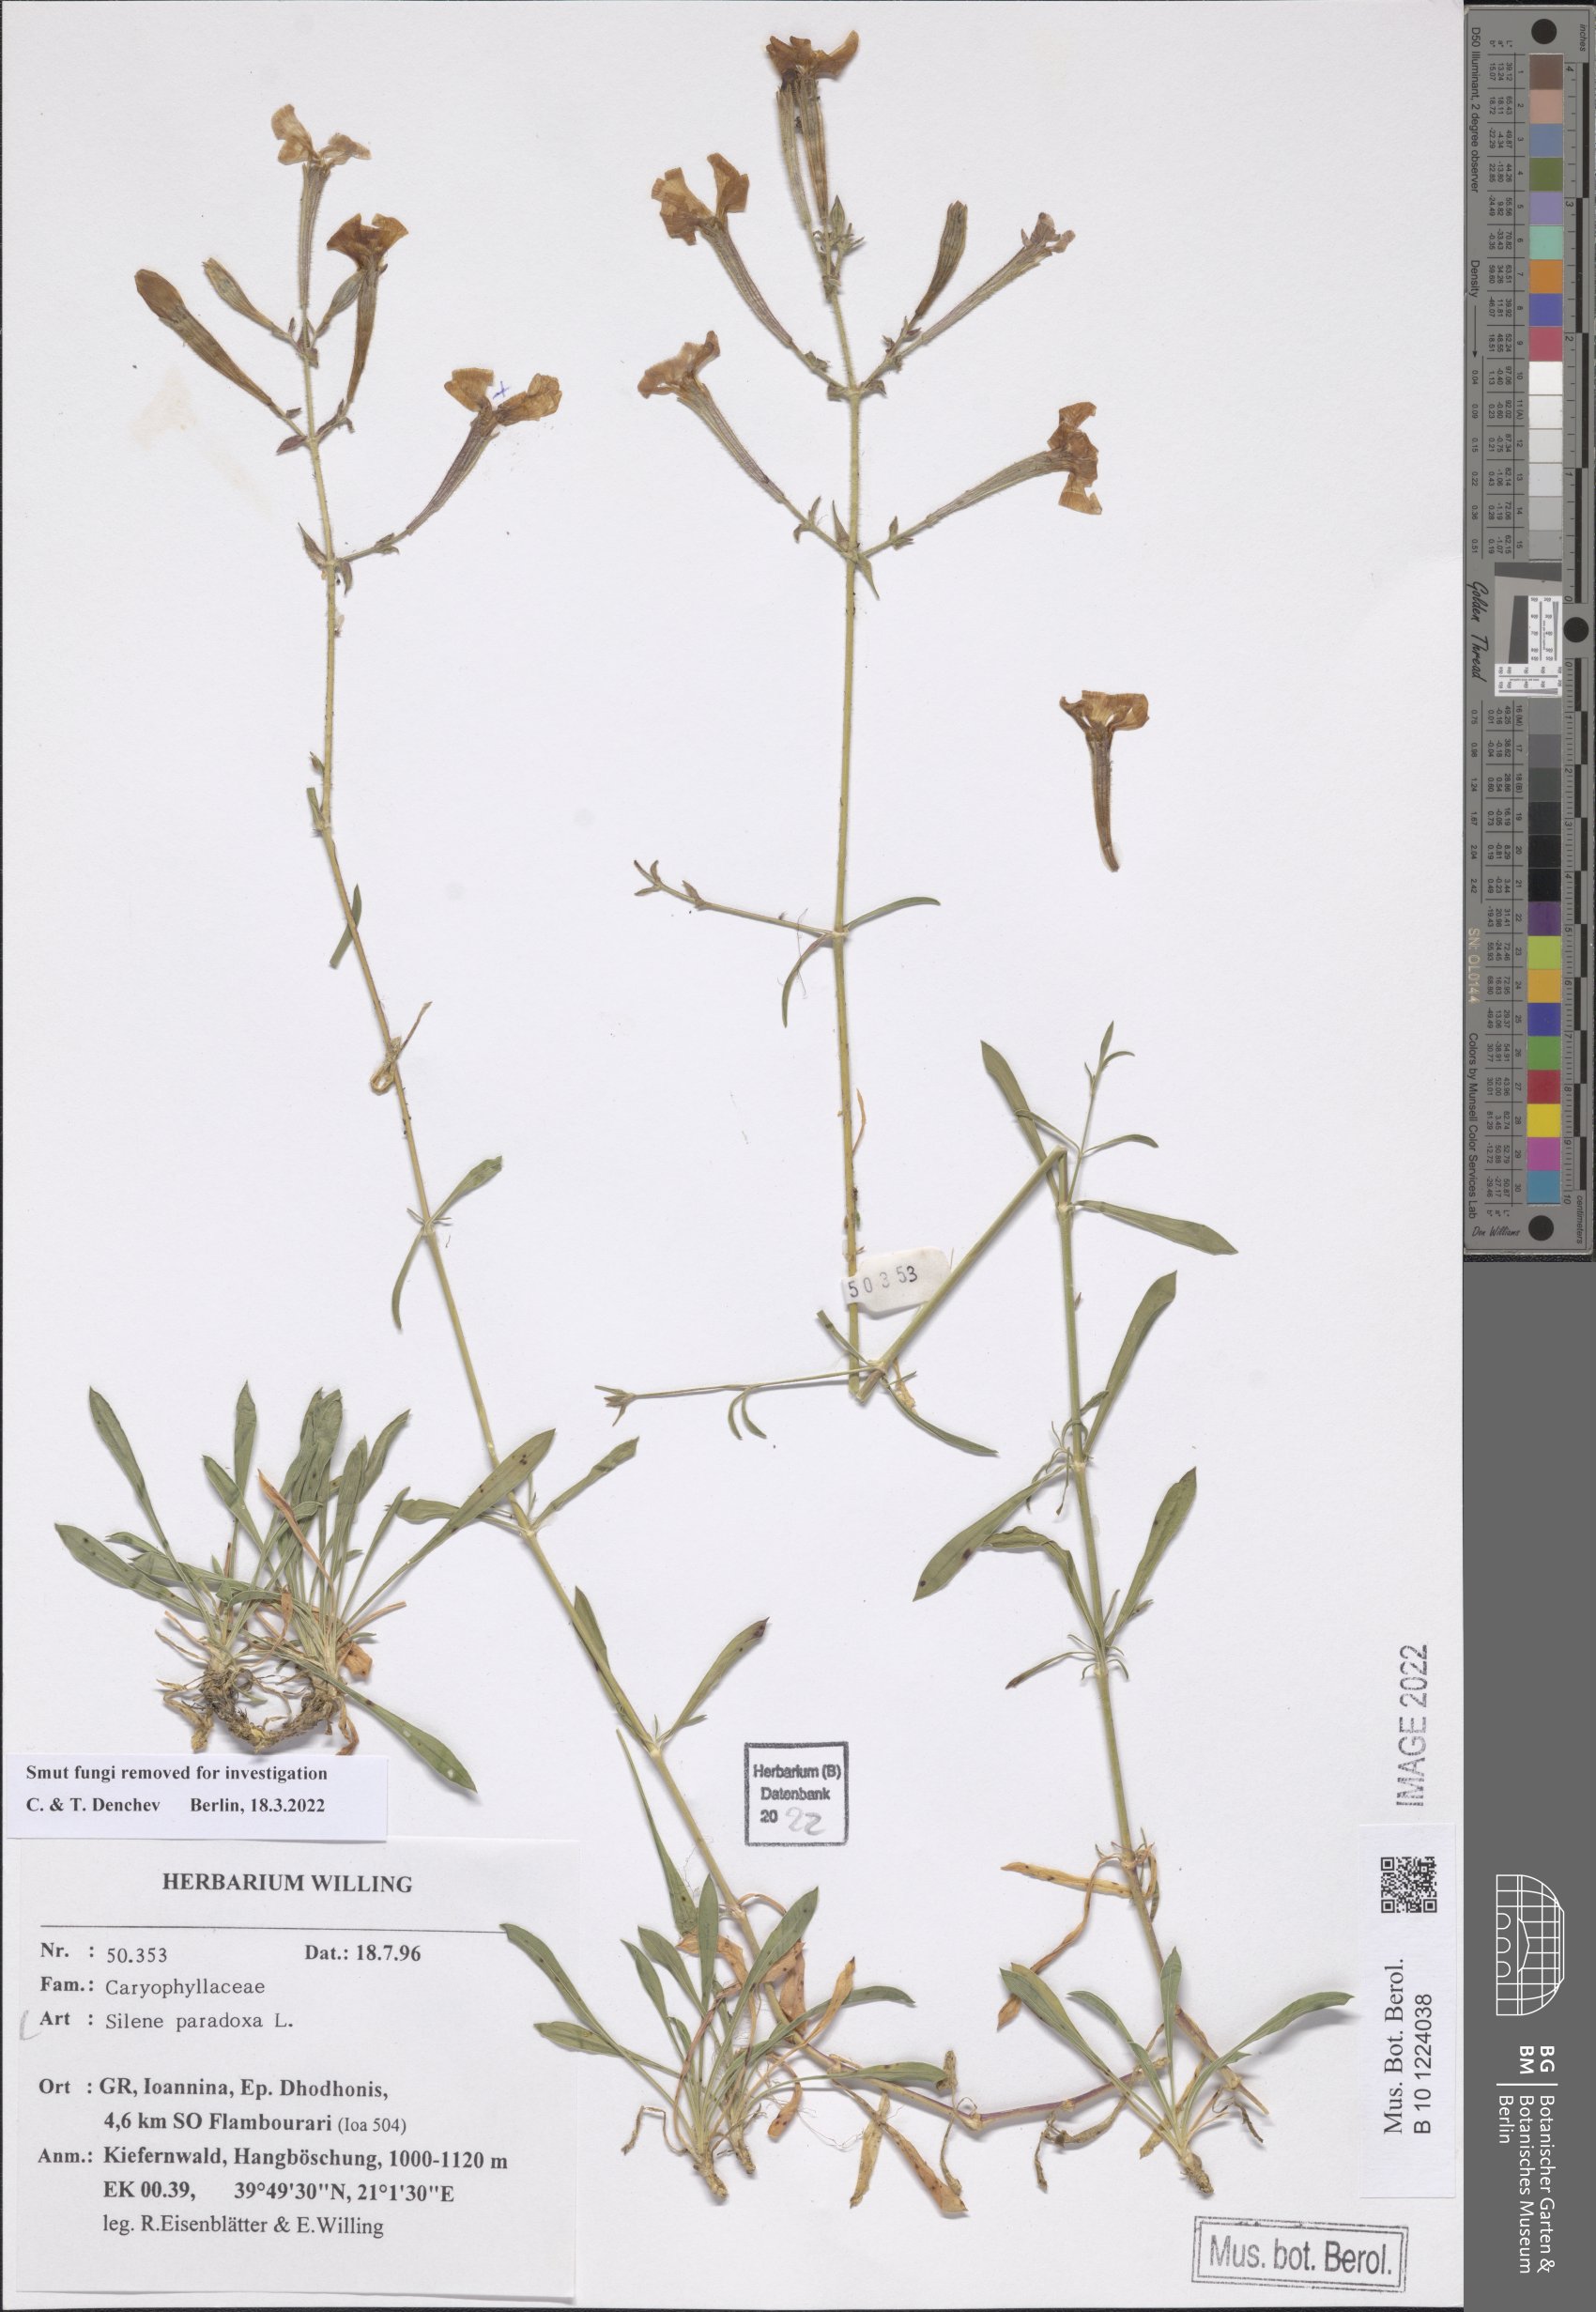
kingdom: Plantae
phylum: Tracheophyta
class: Magnoliopsida
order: Caryophyllales
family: Caryophyllaceae
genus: Silene
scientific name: Silene paradoxa
